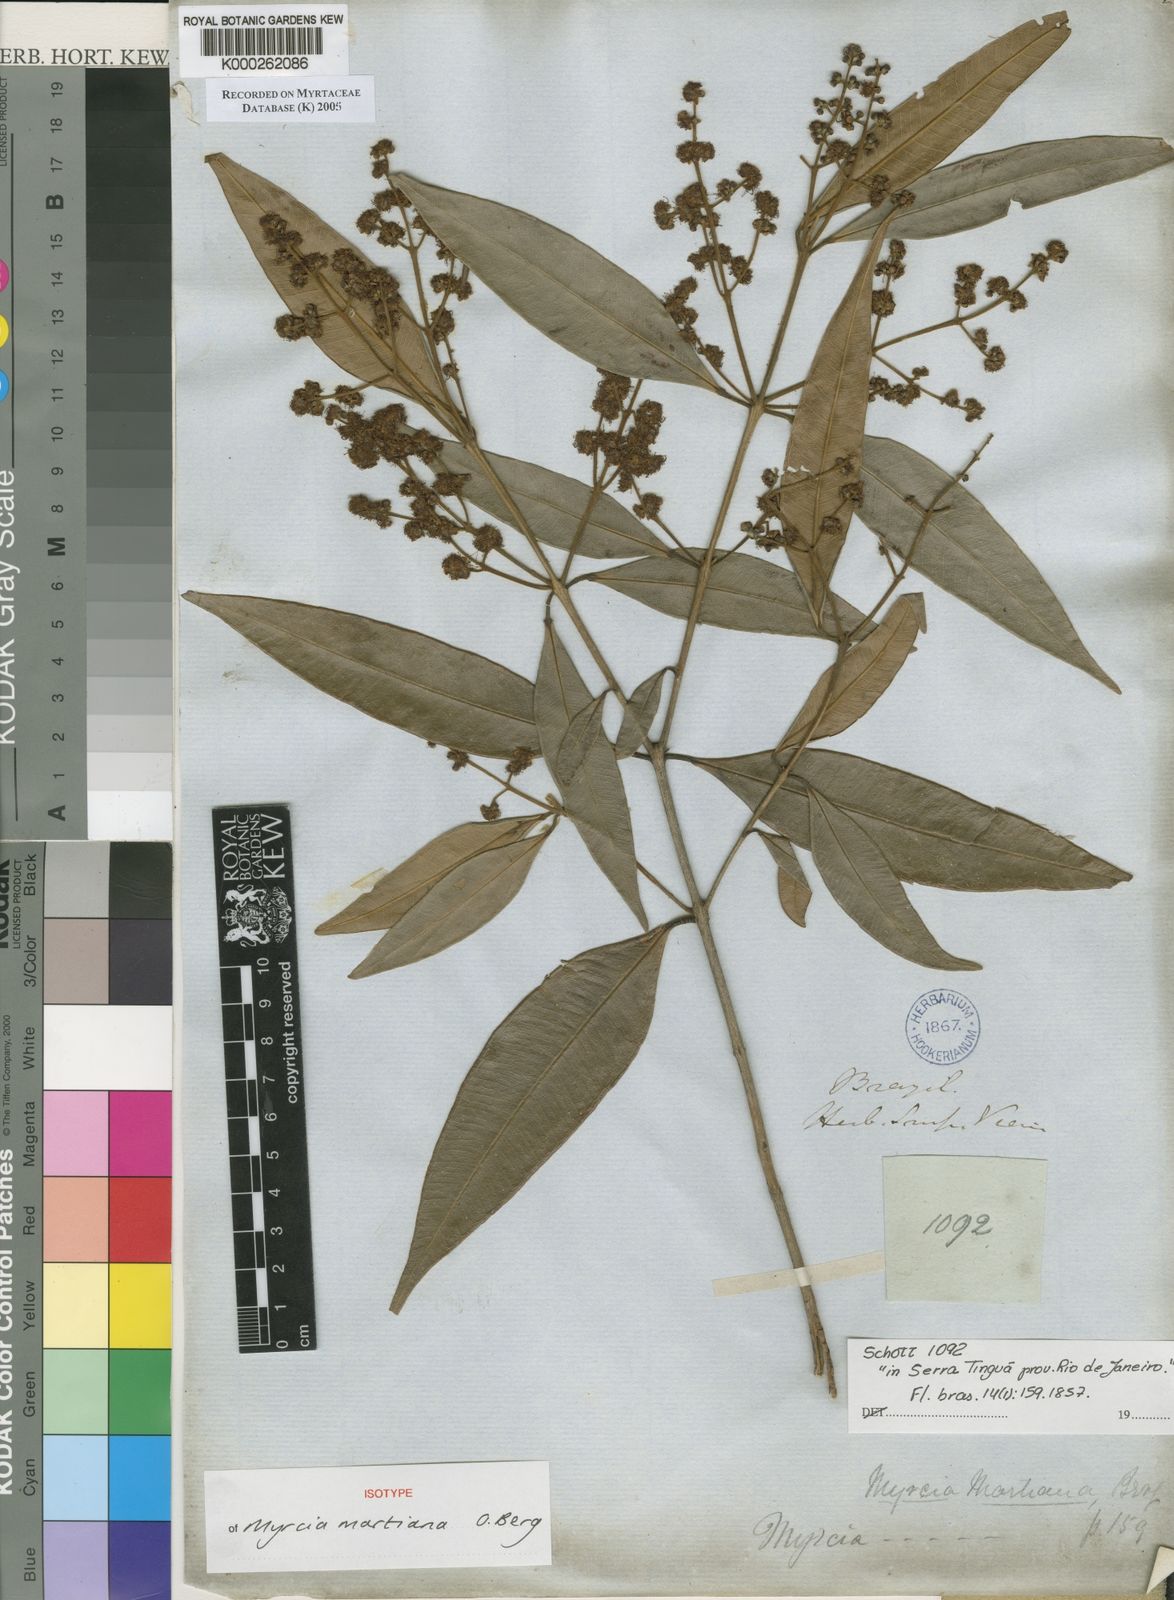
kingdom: Plantae
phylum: Tracheophyta
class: Magnoliopsida
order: Myrtales
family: Myrtaceae
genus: Myrcia
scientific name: Myrcia splendens
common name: Surinam cherry
